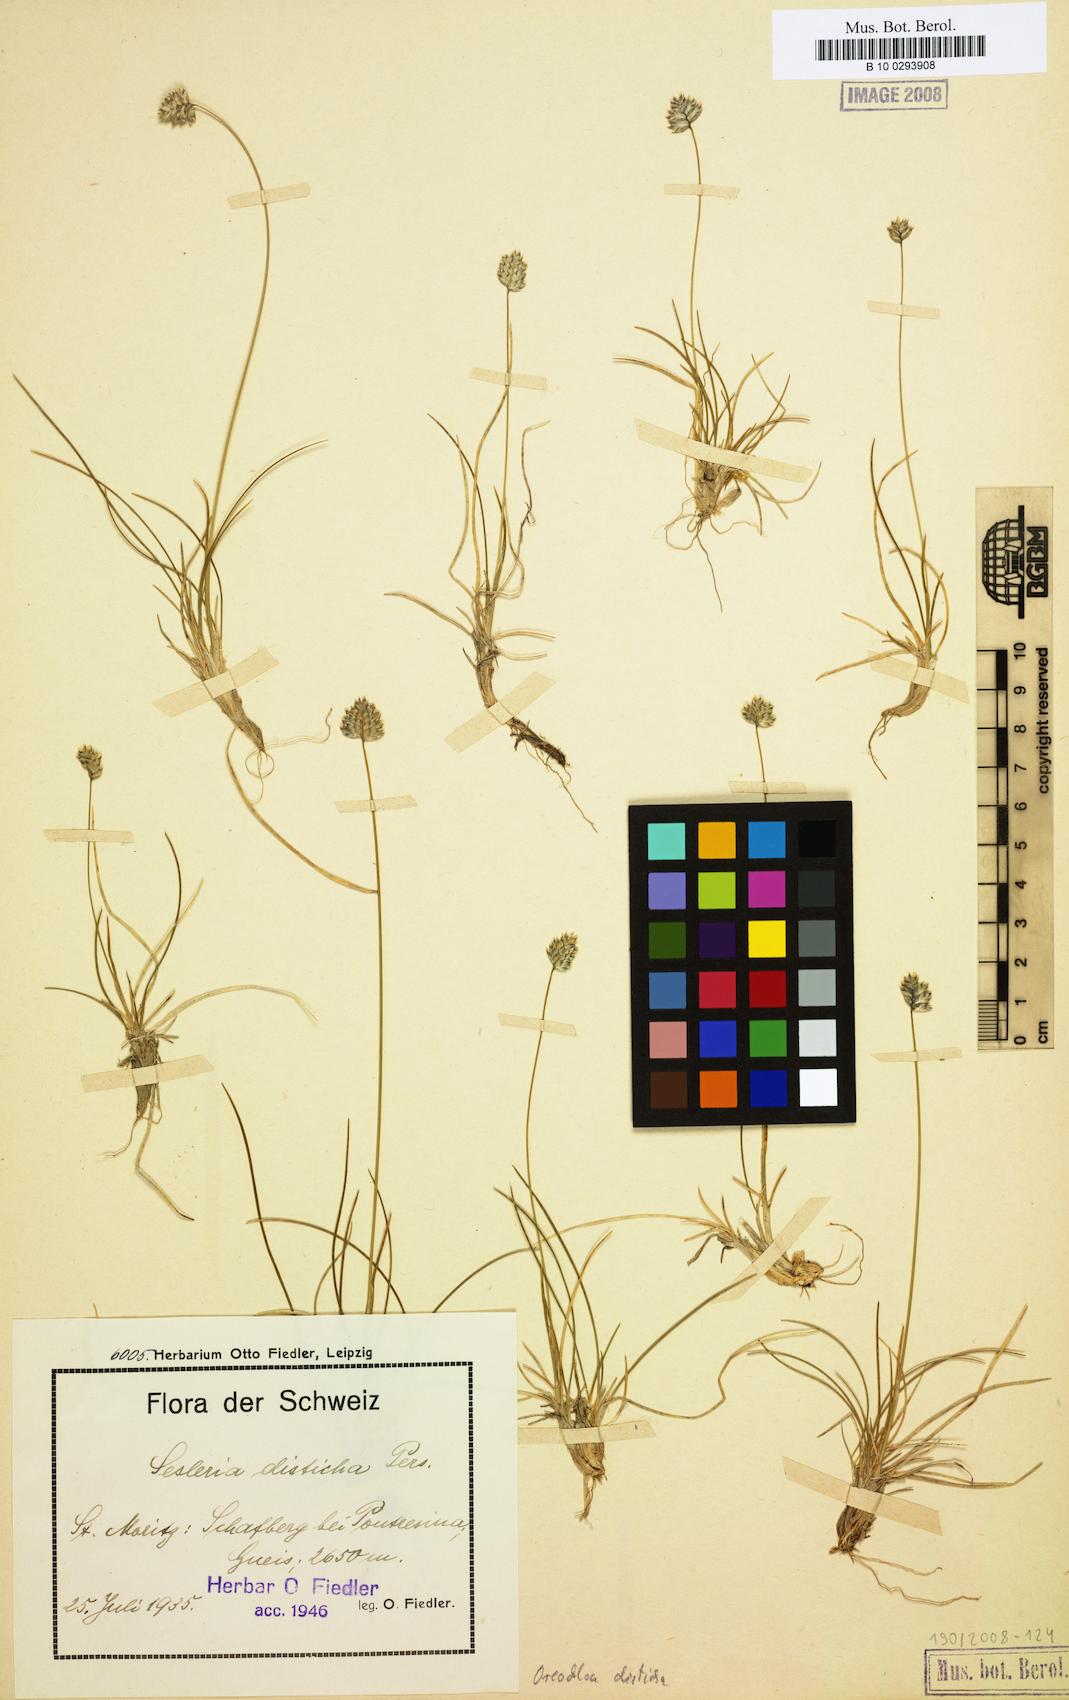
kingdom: Plantae
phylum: Tracheophyta
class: Liliopsida
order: Poales
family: Poaceae
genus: Oreochloa
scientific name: Oreochloa disticha
